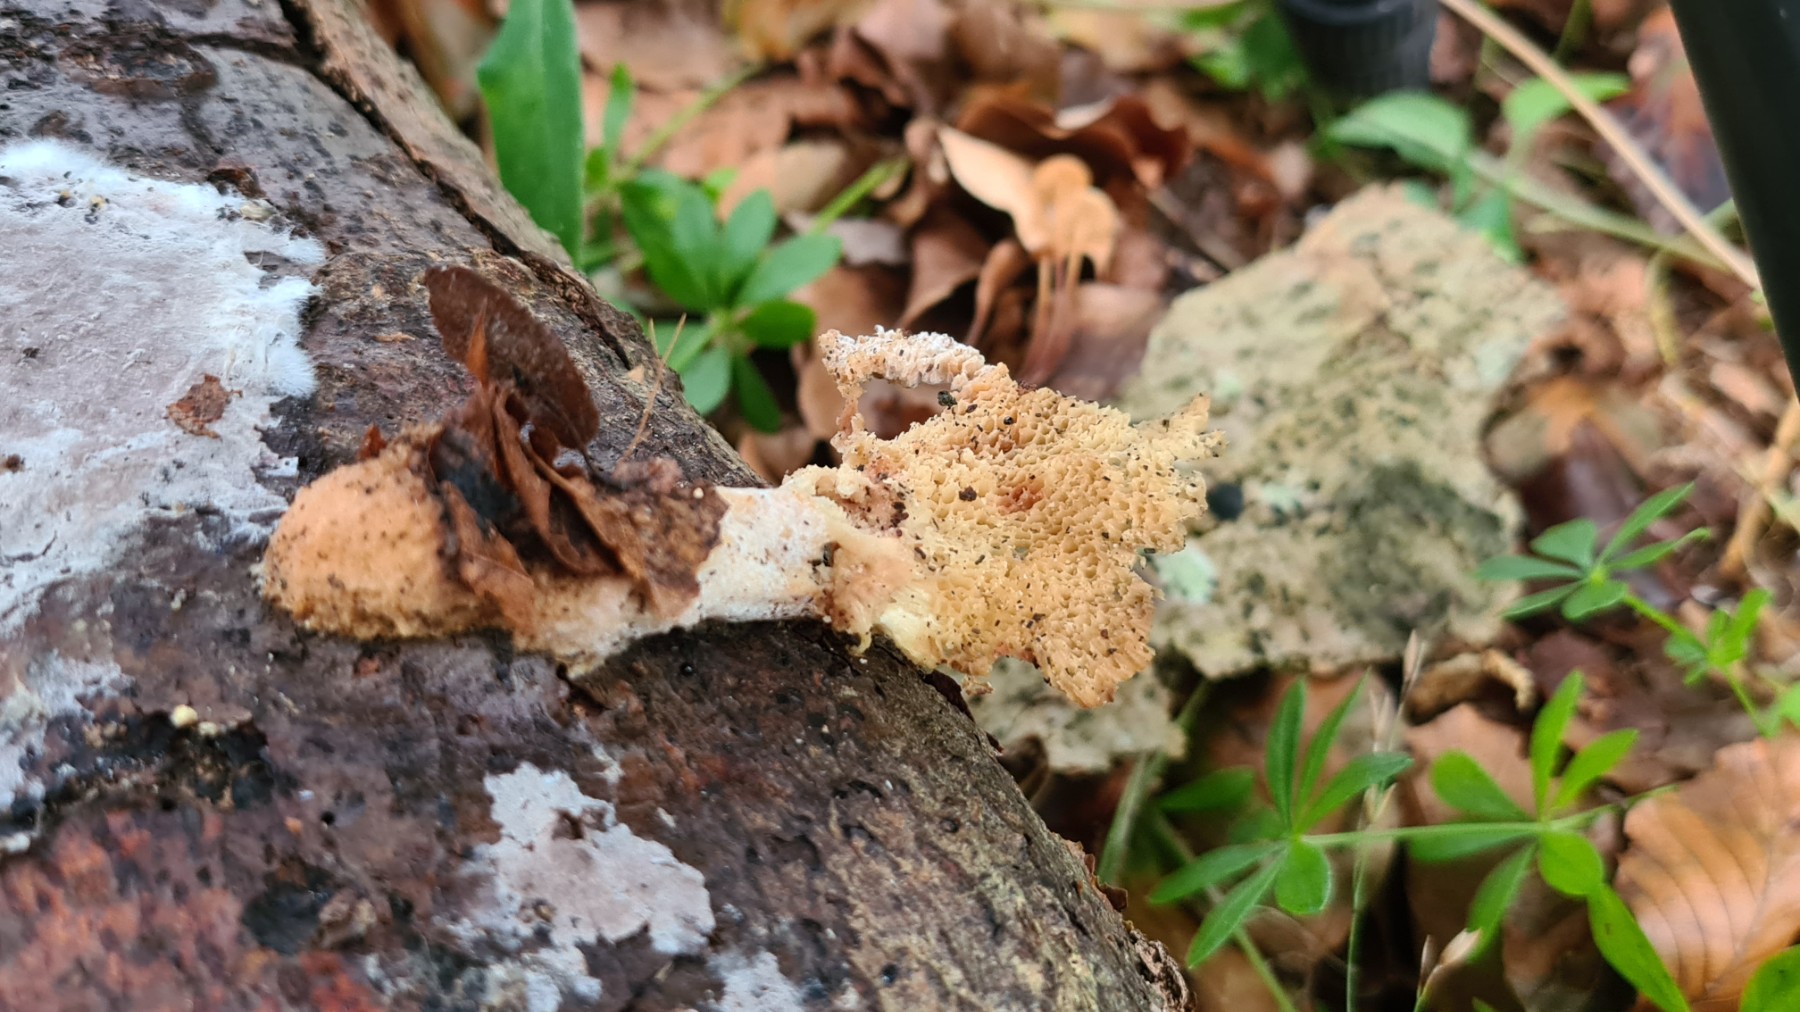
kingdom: Fungi
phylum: Basidiomycota
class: Agaricomycetes
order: Polyporales
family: Polyporaceae
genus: Polyporus
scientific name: Polyporus tuberaster
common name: knoldet stilkporesvamp
